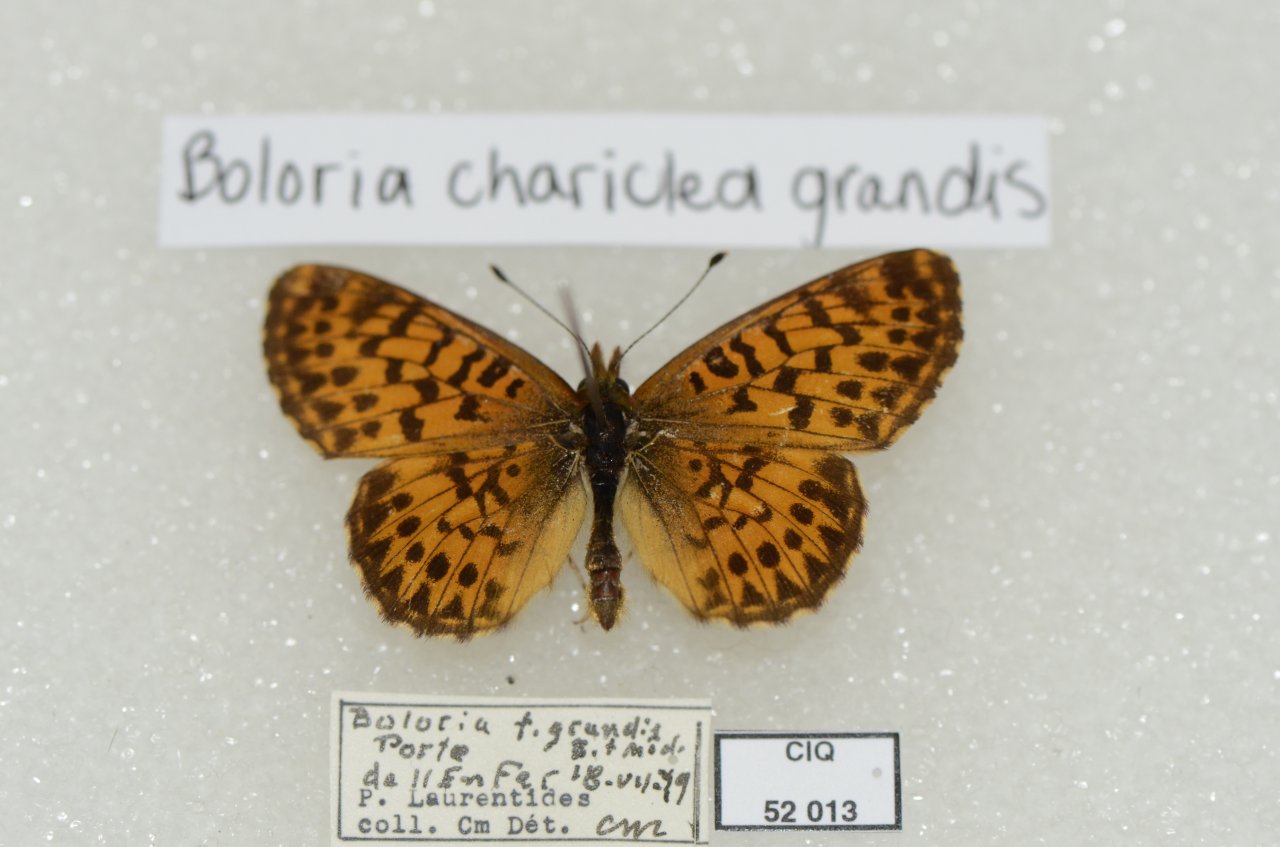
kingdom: Animalia
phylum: Arthropoda
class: Insecta
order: Lepidoptera
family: Nymphalidae
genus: Boloria
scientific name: Boloria chariclea
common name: Arctic Fritillary
